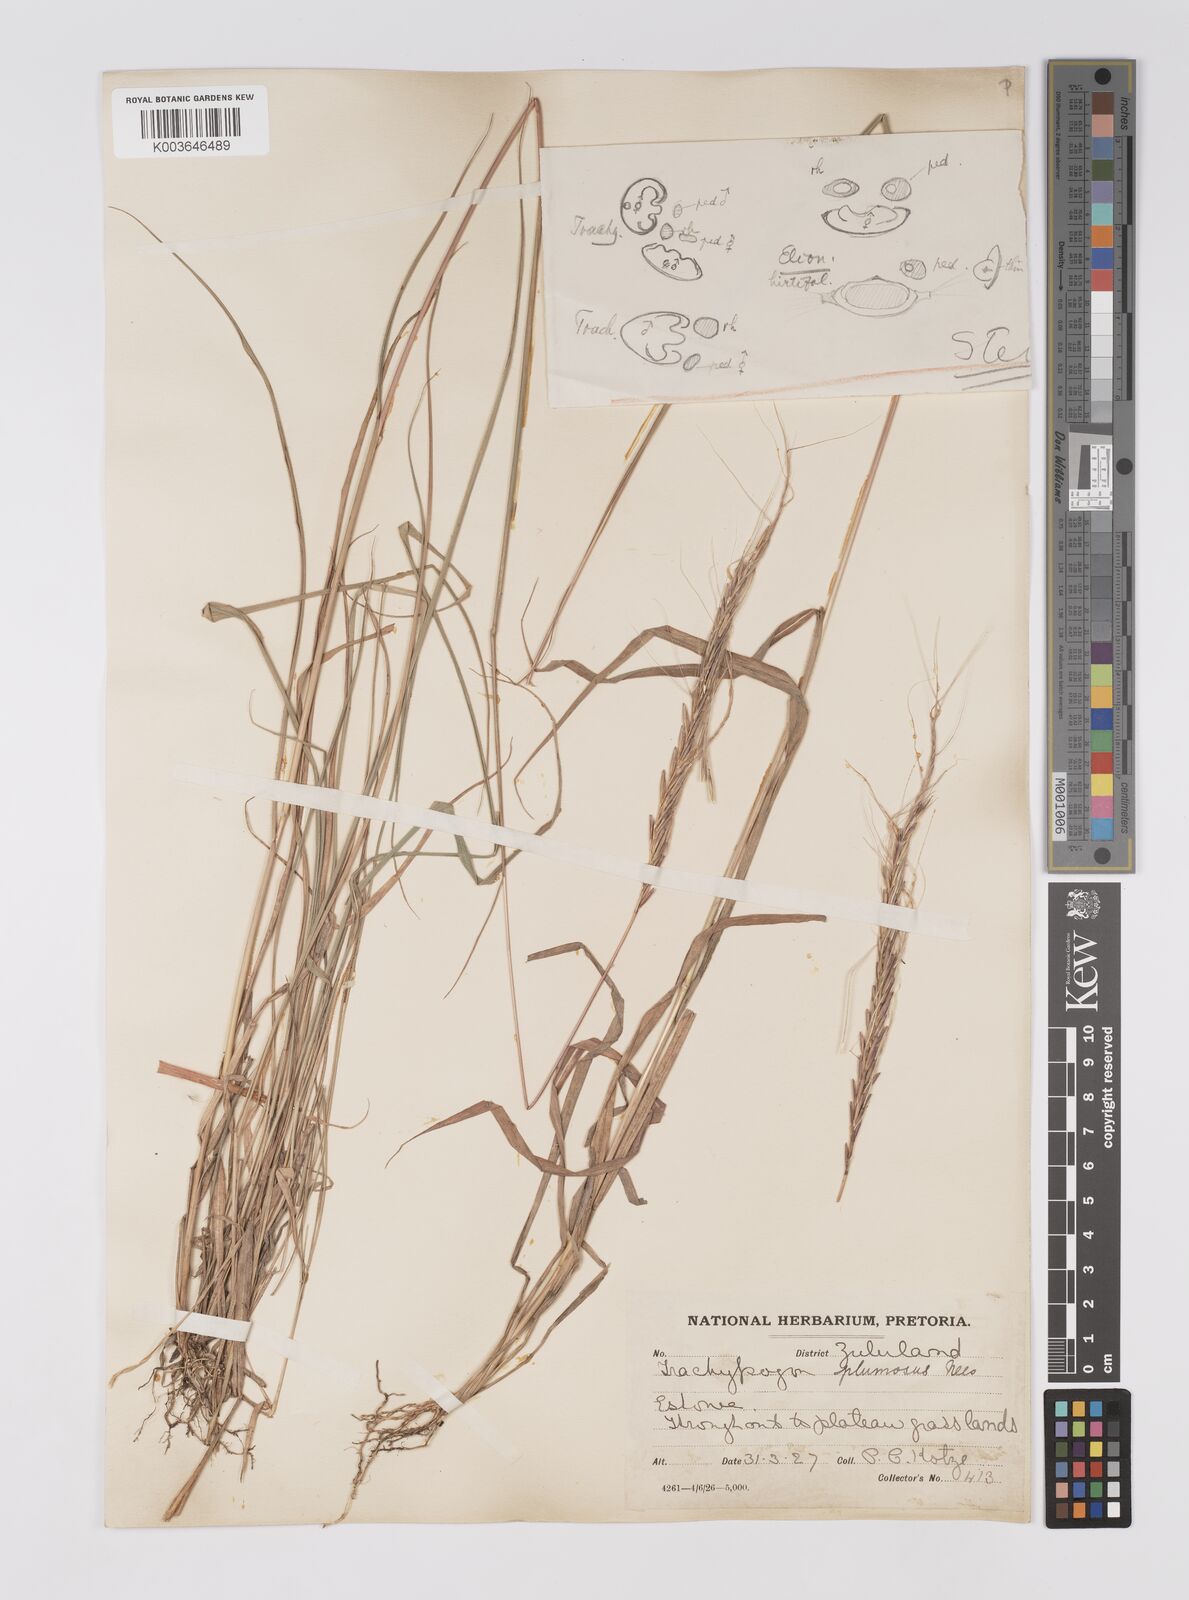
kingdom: Plantae
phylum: Tracheophyta
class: Liliopsida
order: Poales
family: Poaceae
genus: Trachypogon
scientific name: Trachypogon spicatus
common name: Crinkle-awn
